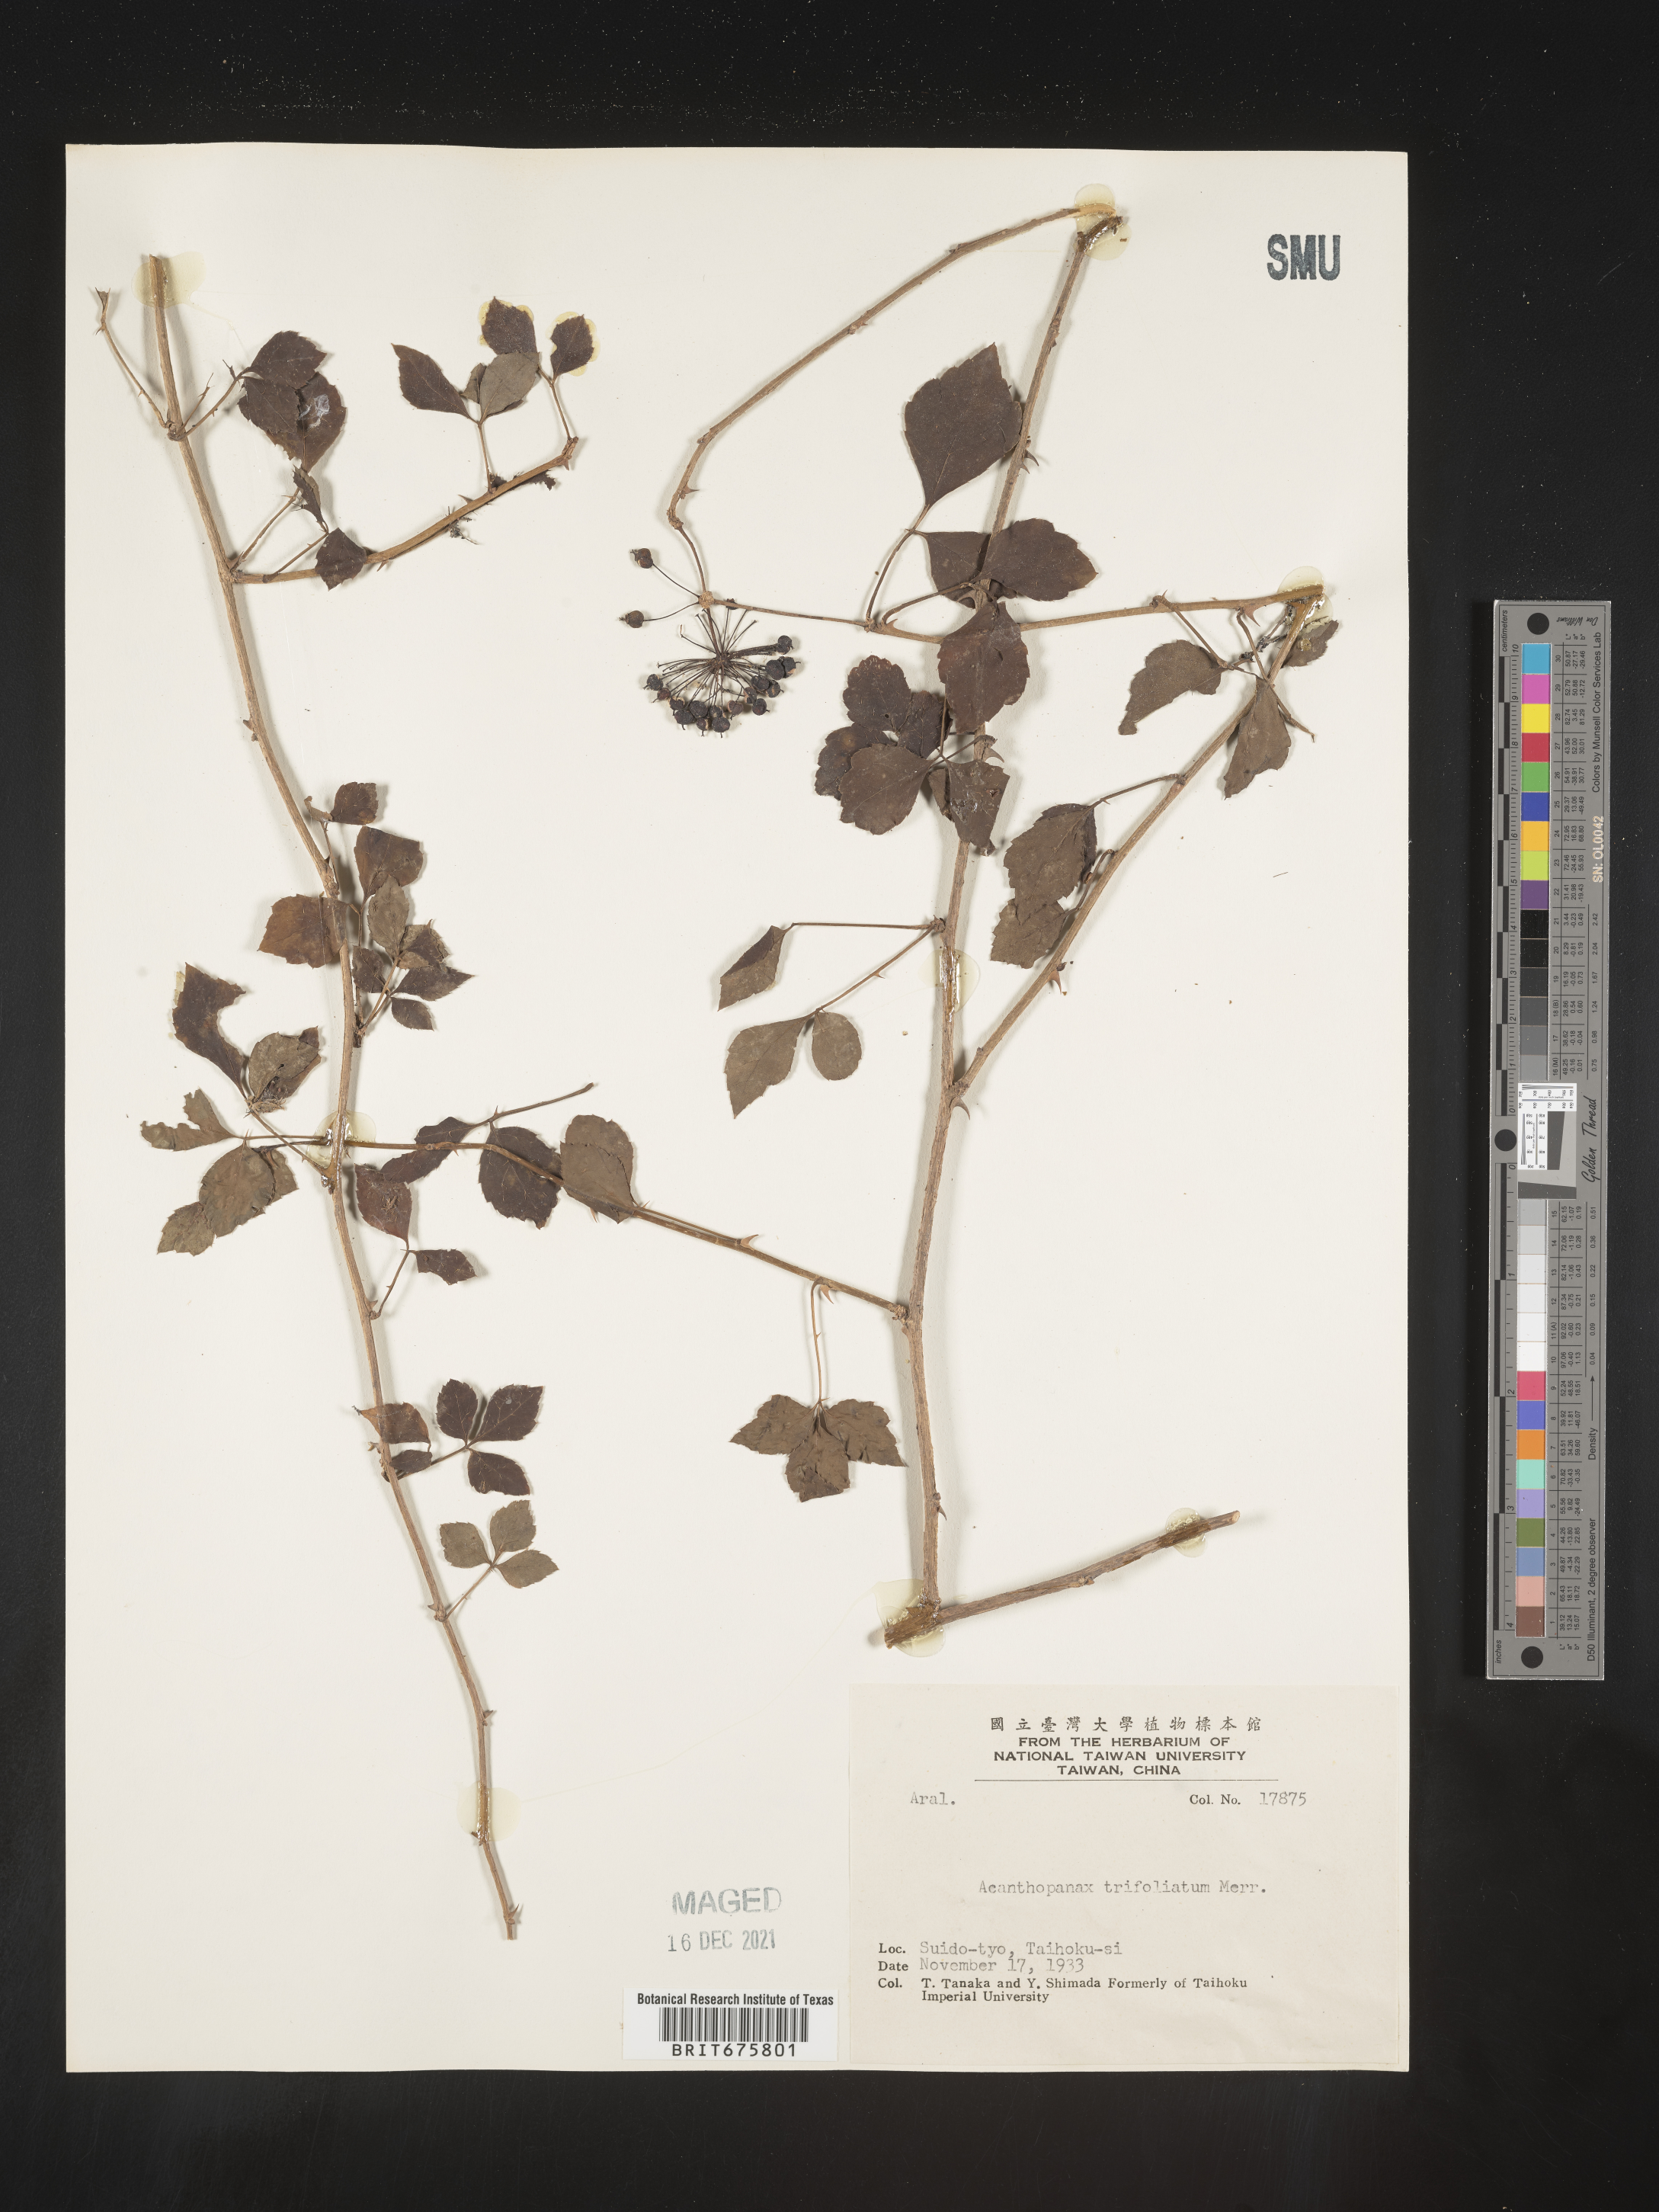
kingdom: Plantae
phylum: Tracheophyta
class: Magnoliopsida
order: Apiales
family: Araliaceae
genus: Acanthopanax
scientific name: Acanthopanax
